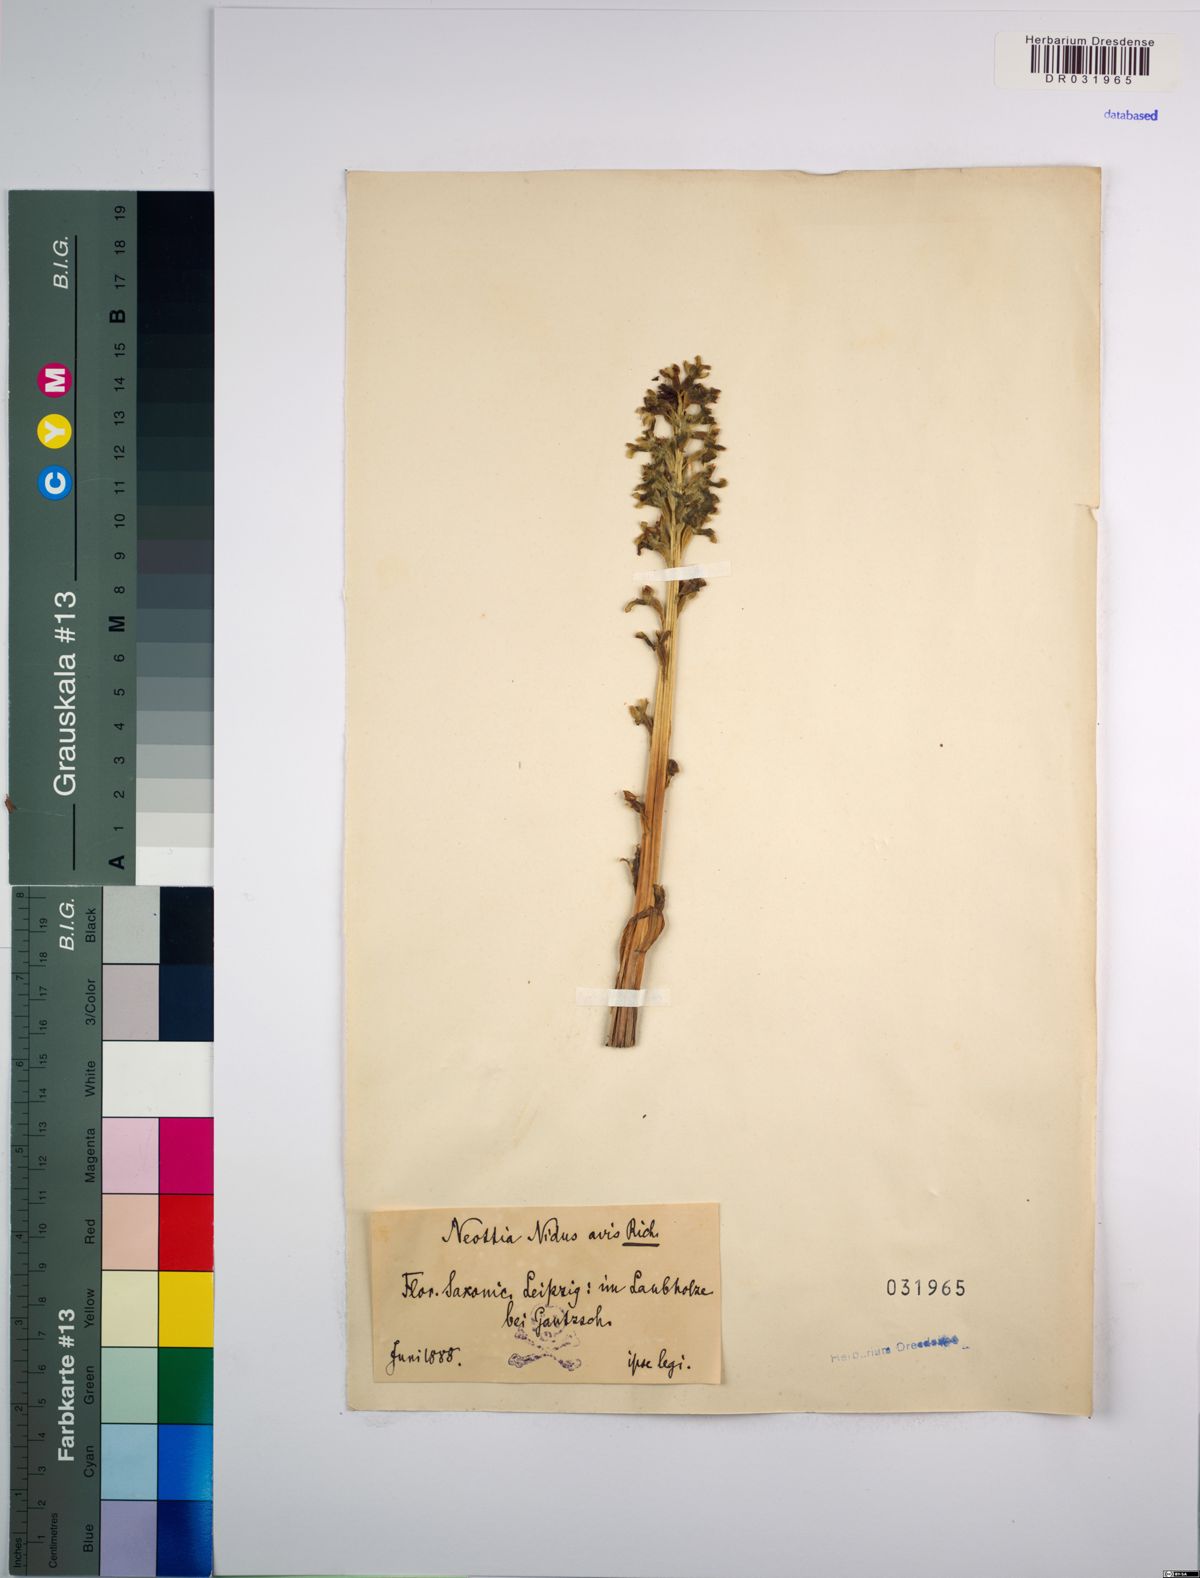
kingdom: Plantae
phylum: Tracheophyta
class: Liliopsida
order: Asparagales
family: Orchidaceae
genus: Neottia
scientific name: Neottia nidus-avis
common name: Bird's-nest orchid
